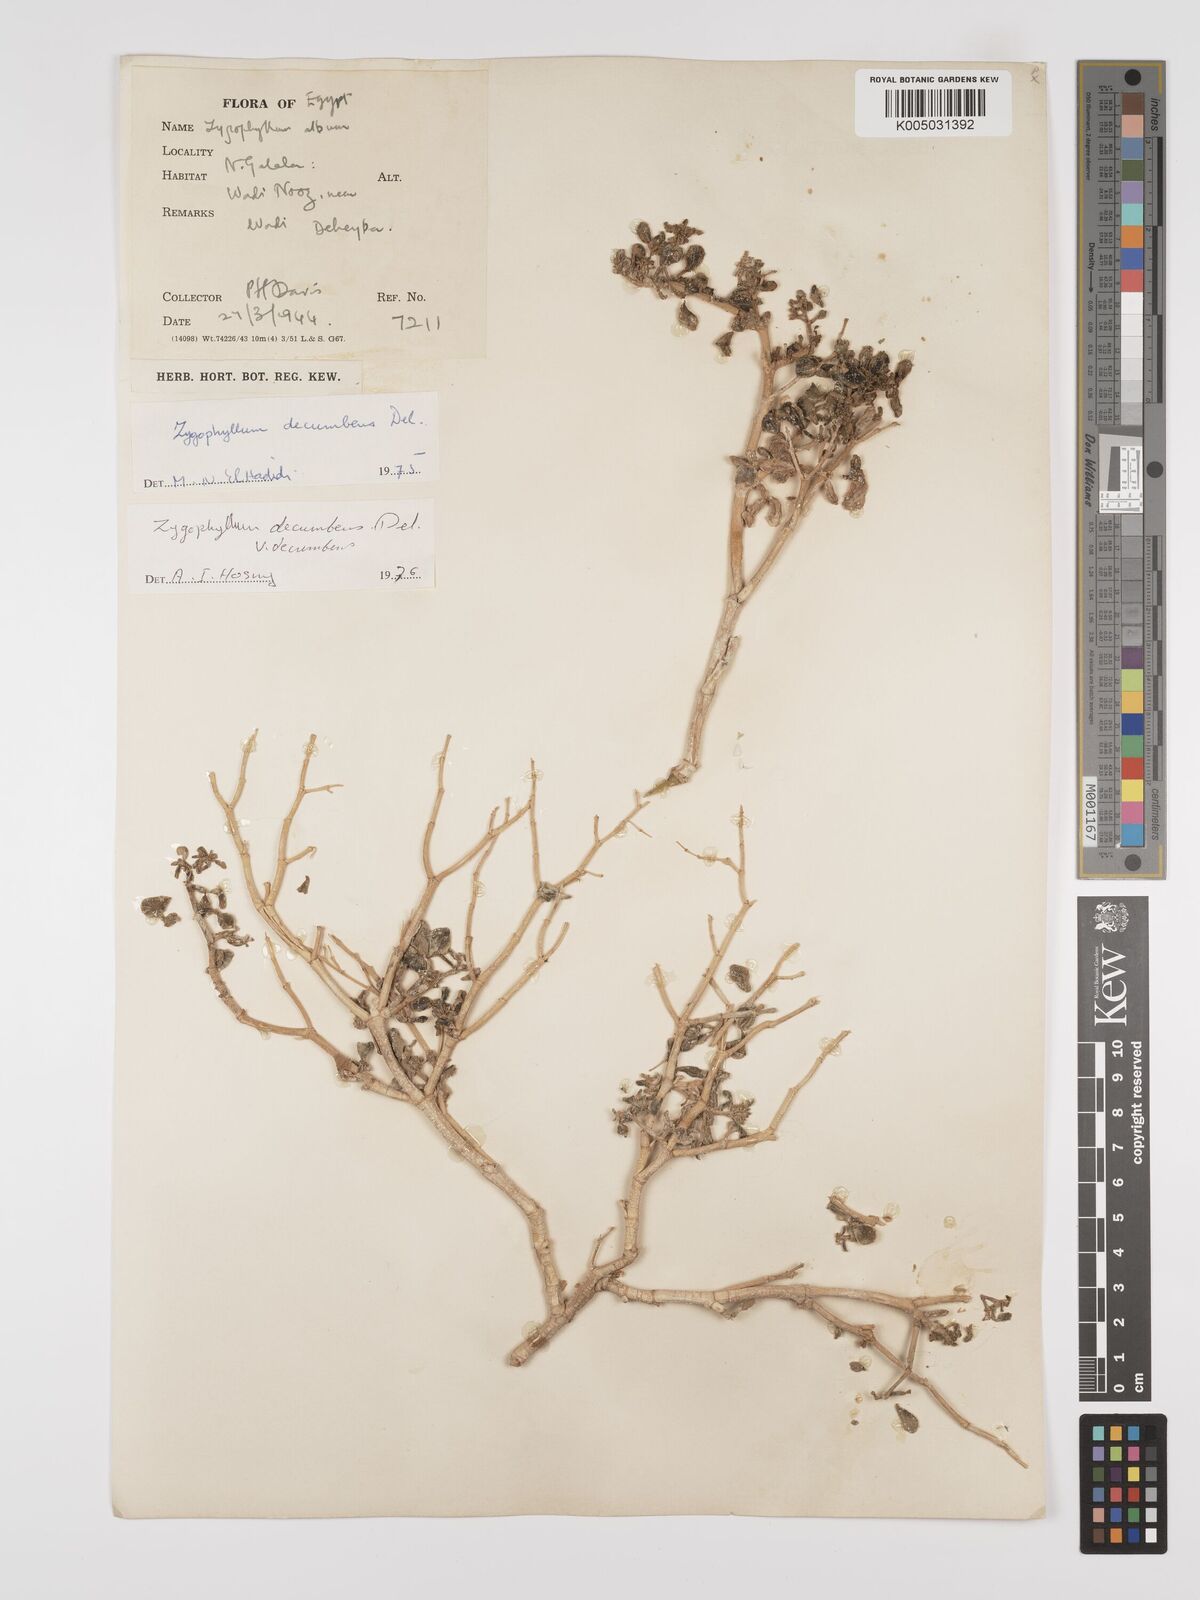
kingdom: Plantae
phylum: Tracheophyta
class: Magnoliopsida
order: Zygophyllales
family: Zygophyllaceae
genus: Tetraena
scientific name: Tetraena decumbens
